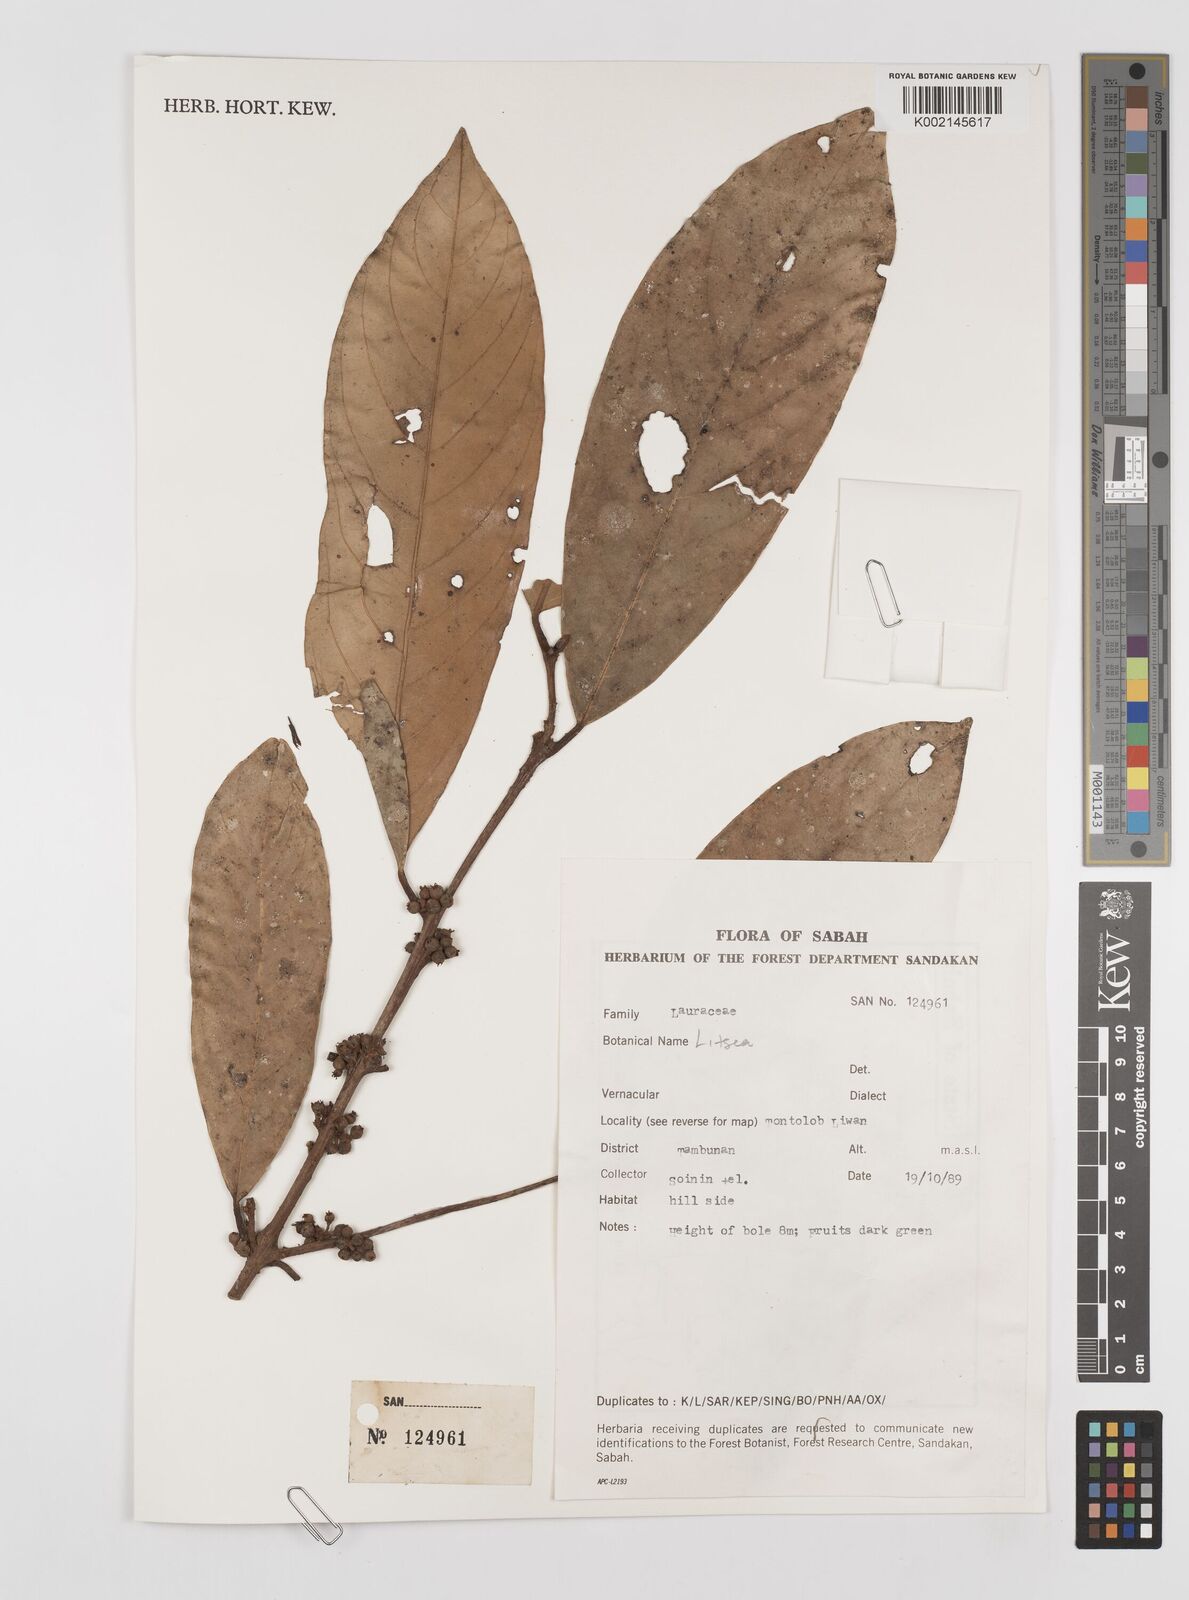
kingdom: Plantae
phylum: Tracheophyta
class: Magnoliopsida
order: Laurales
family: Lauraceae
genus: Litsea
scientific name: Litsea
